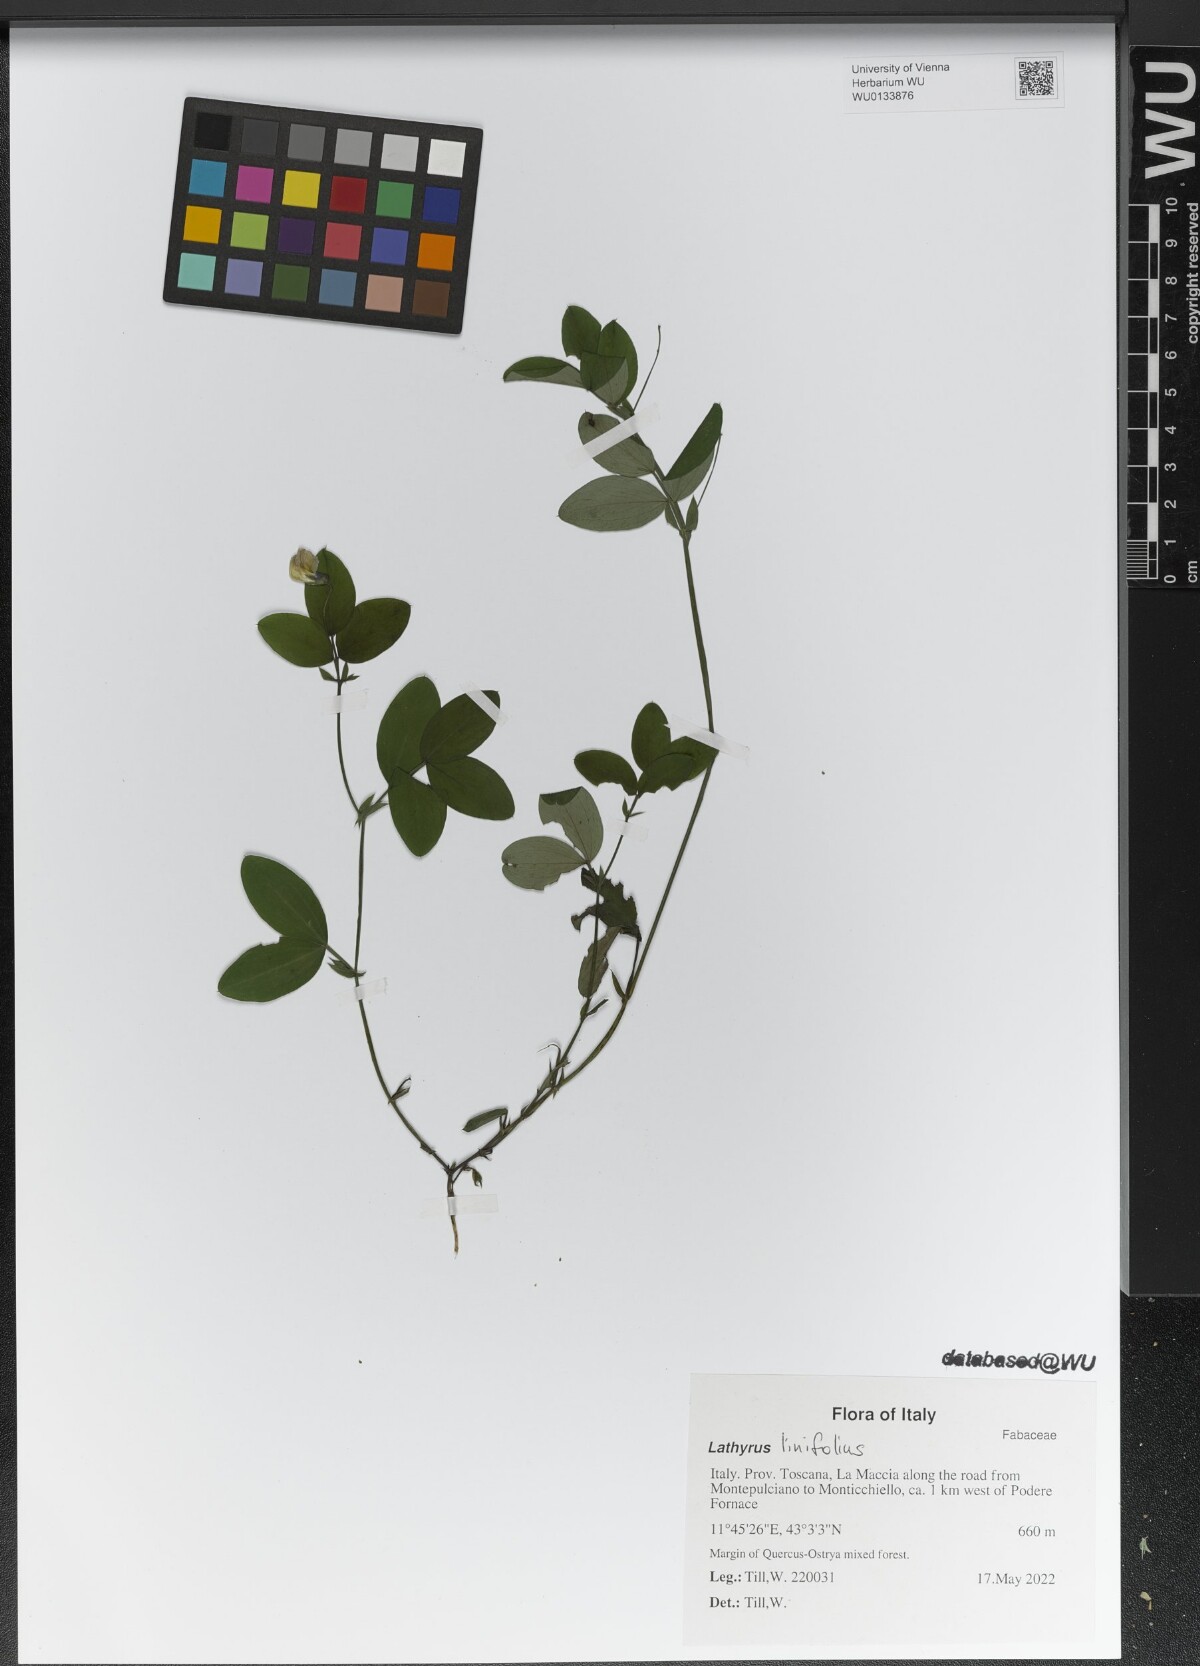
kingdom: Plantae
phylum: Tracheophyta
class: Magnoliopsida
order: Fabales
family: Fabaceae
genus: Lathyrus
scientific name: Lathyrus linifolius
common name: Bitter-vetch
